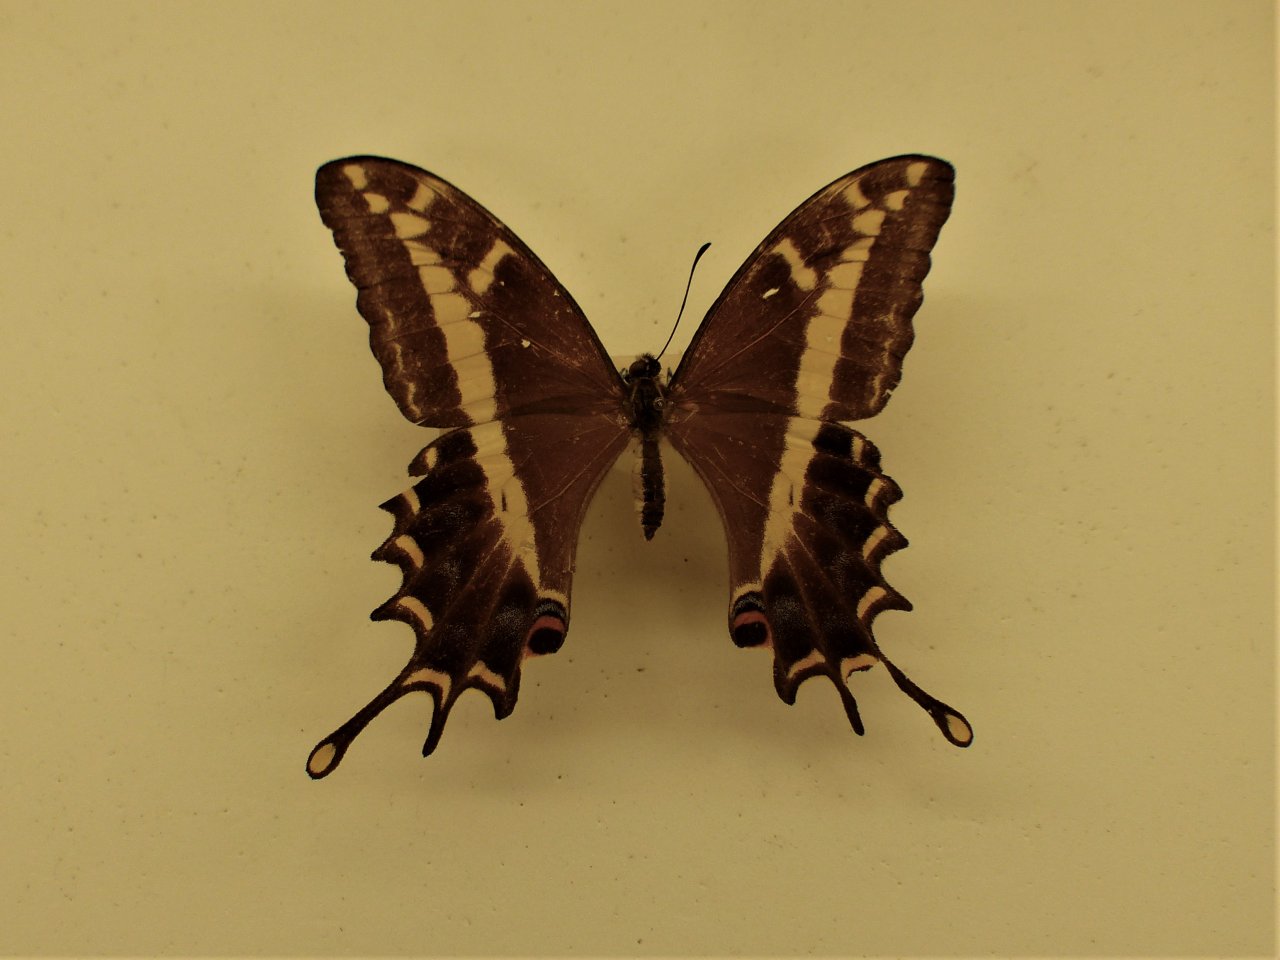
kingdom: Animalia
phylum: Arthropoda
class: Insecta
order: Lepidoptera
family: Papilionidae
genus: Papilio
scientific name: Papilio andraemon
